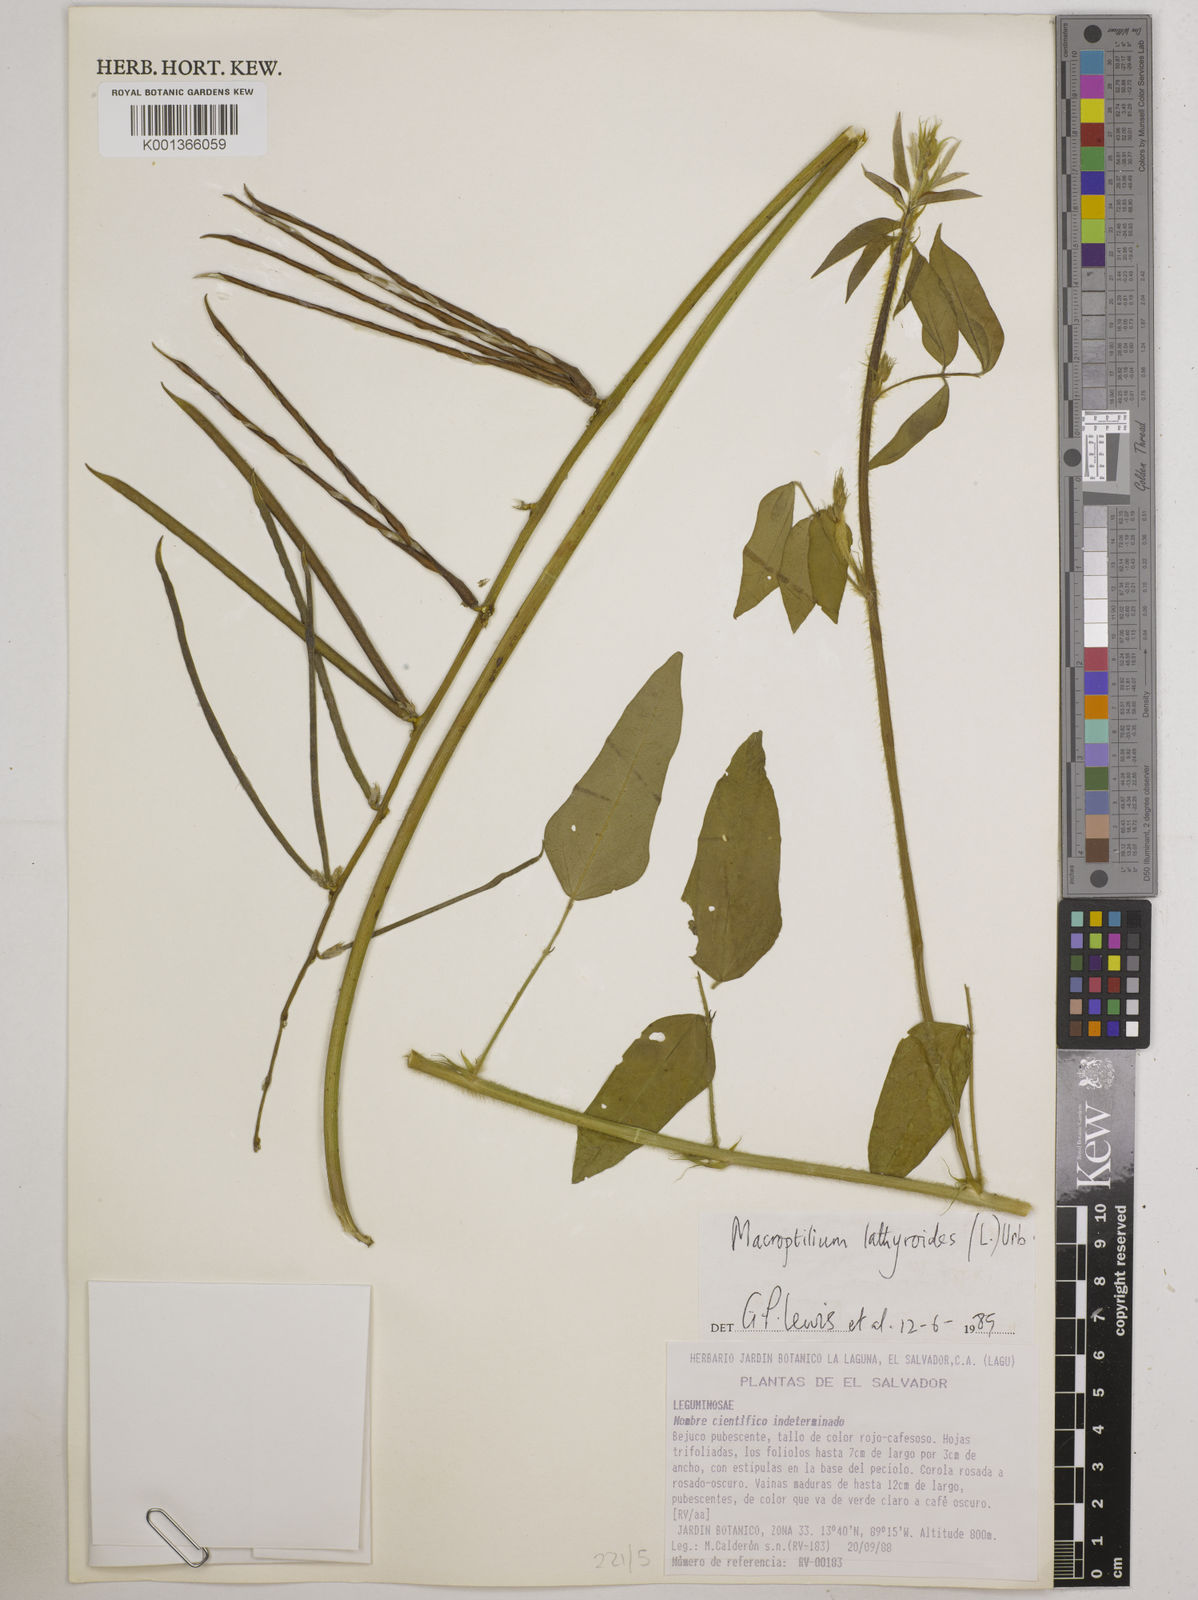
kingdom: Plantae
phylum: Tracheophyta
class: Magnoliopsida
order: Fabales
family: Fabaceae
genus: Macroptilium
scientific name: Macroptilium lathyroides
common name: Wild bushbean
